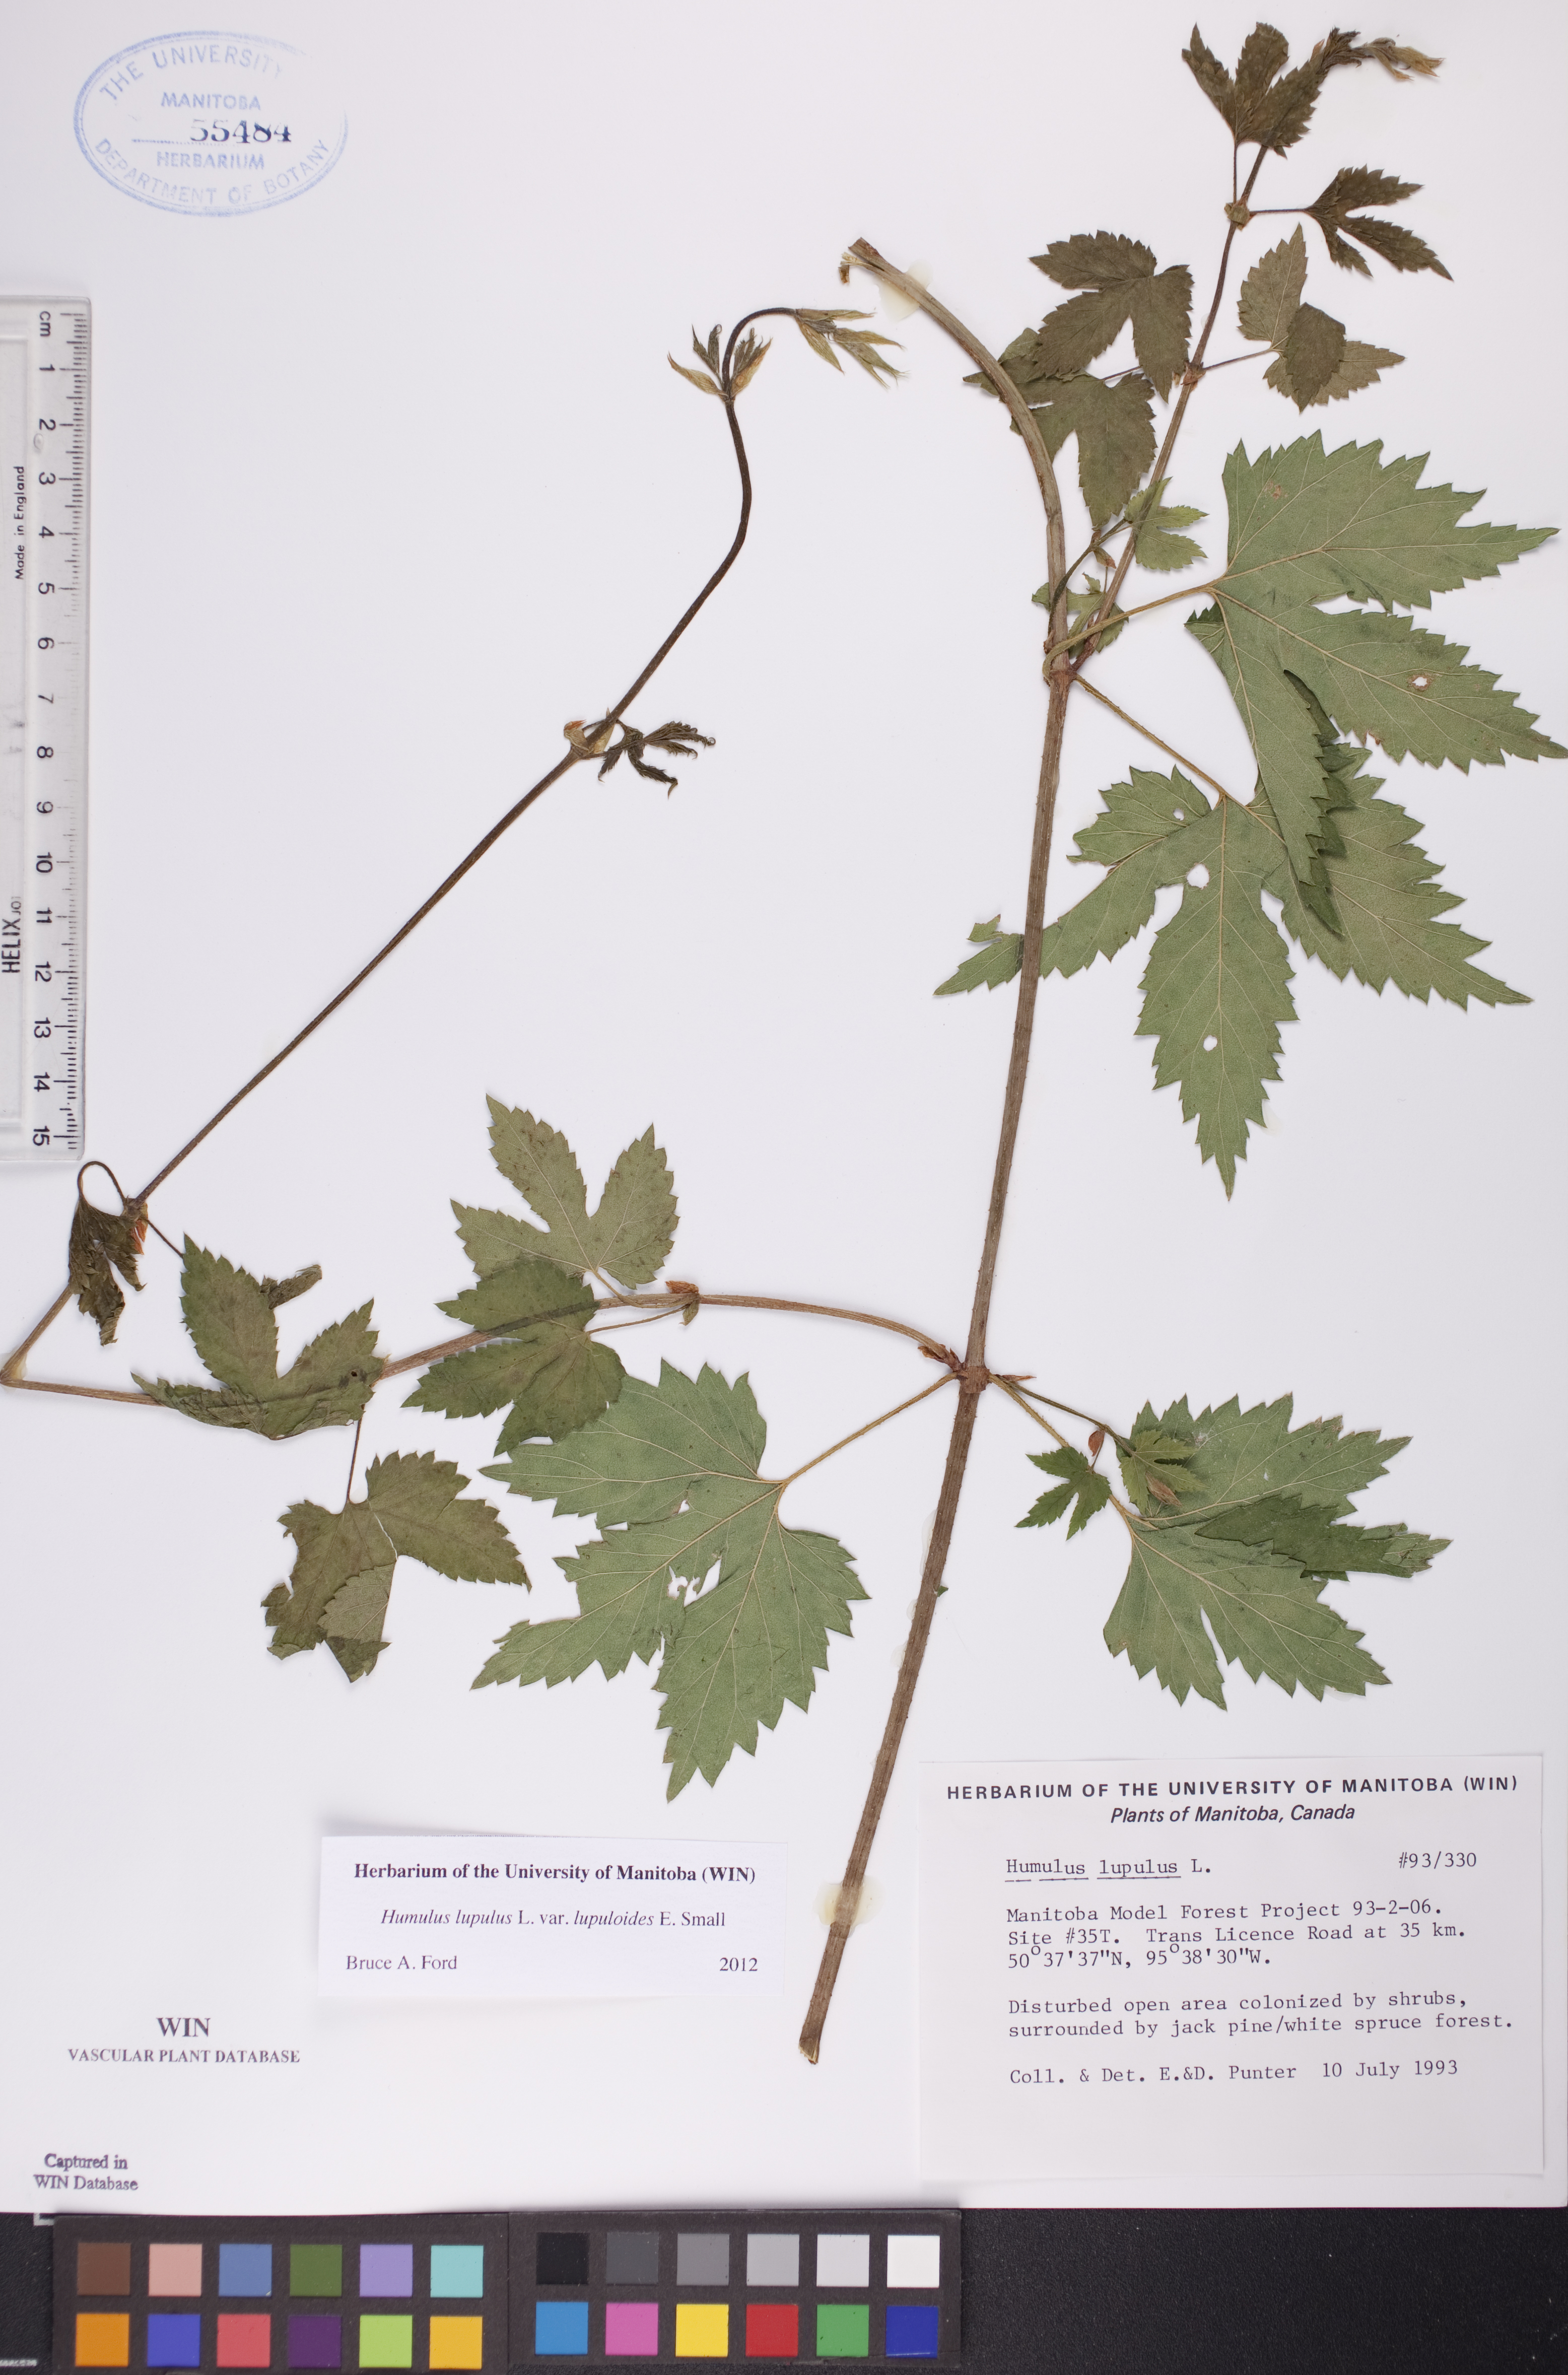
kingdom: Plantae
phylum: Tracheophyta
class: Magnoliopsida
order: Rosales
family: Cannabaceae
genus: Humulus
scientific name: Humulus americanus
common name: American hops
